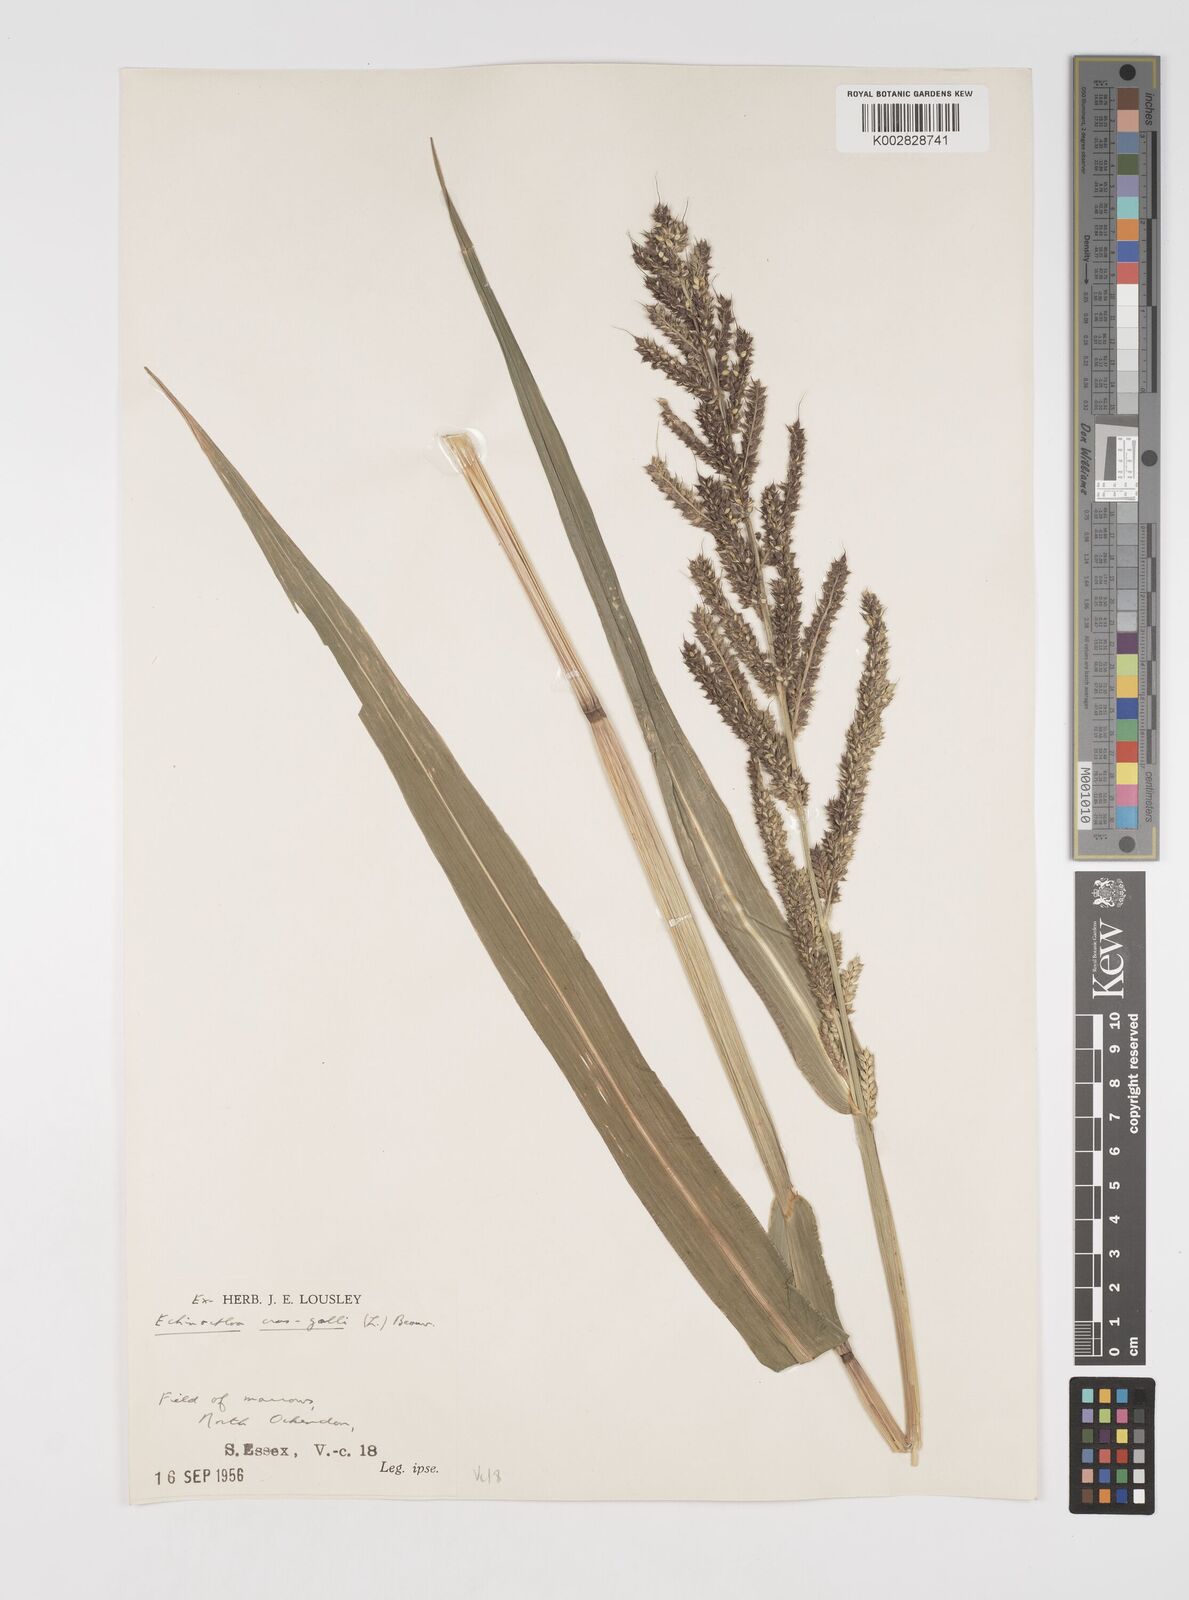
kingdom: Plantae
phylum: Tracheophyta
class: Liliopsida
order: Poales
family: Poaceae
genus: Echinochloa
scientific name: Echinochloa crus-galli
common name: Cockspur
